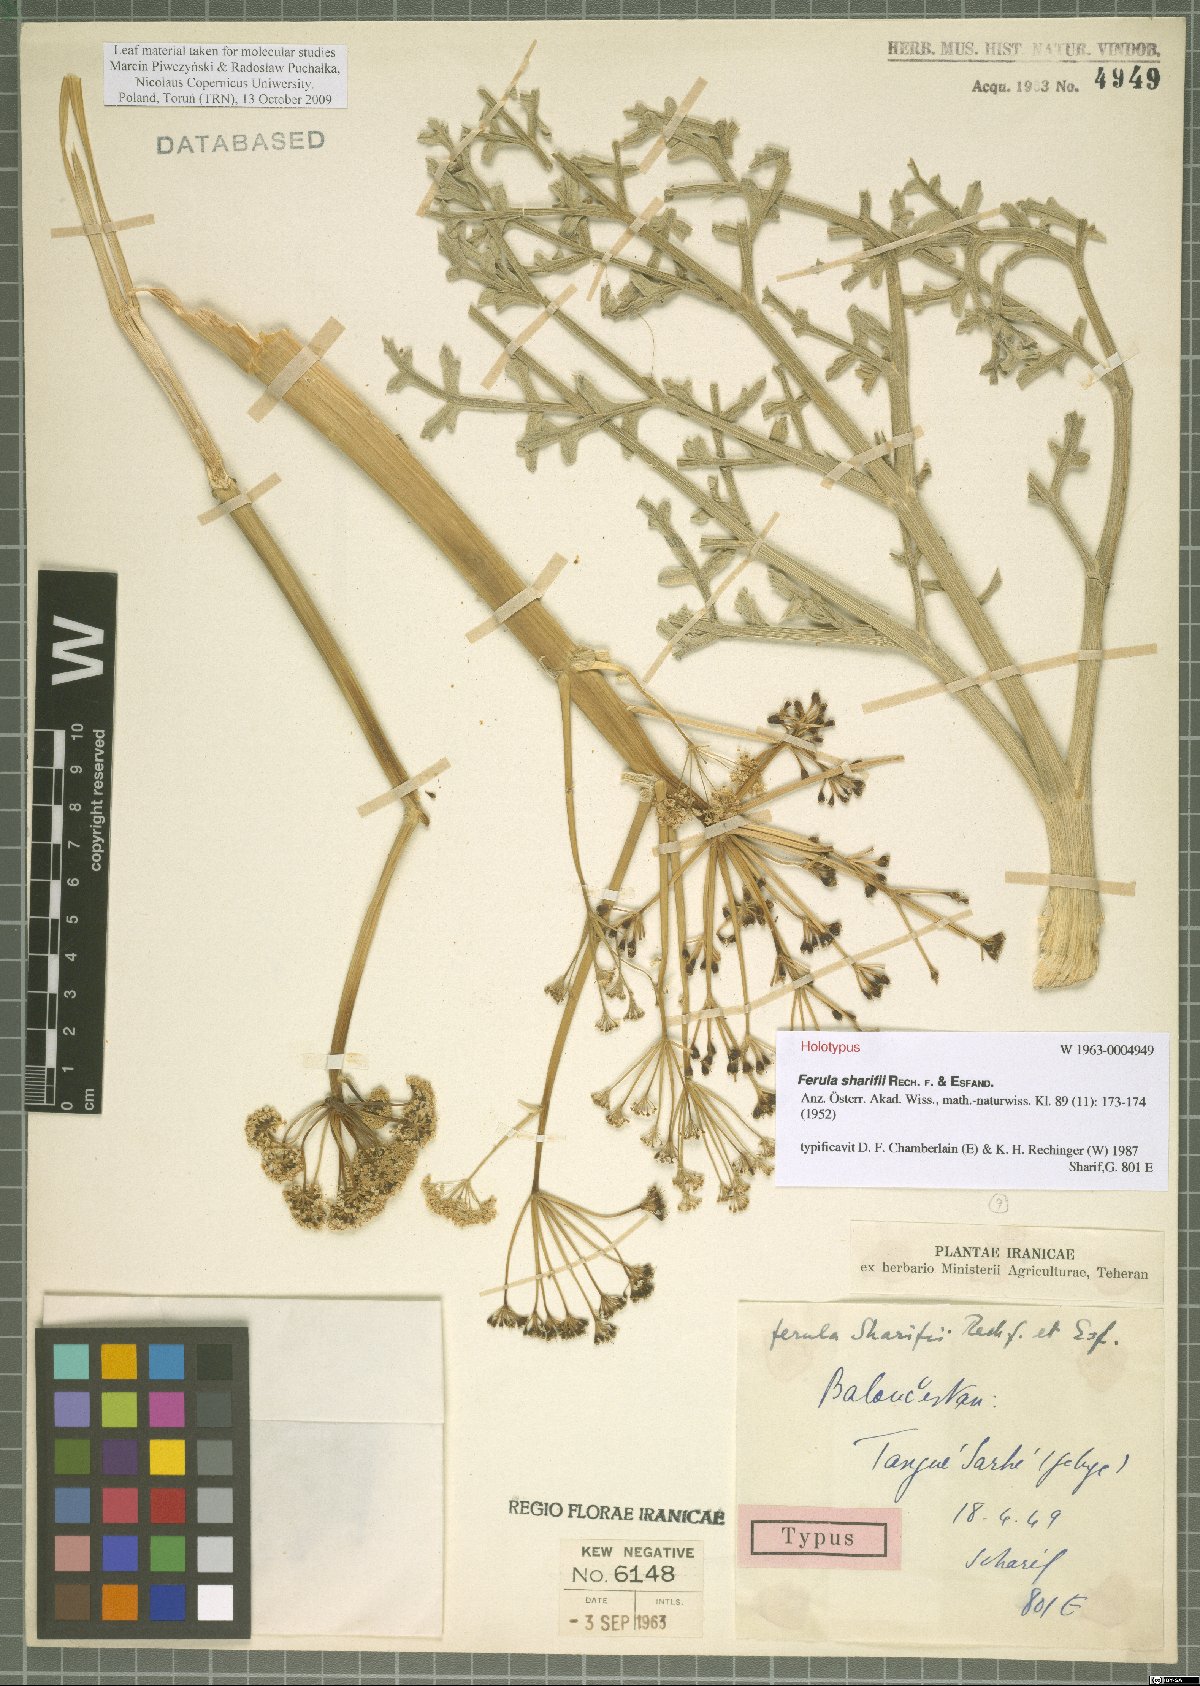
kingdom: Plantae
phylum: Tracheophyta
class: Magnoliopsida
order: Apiales
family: Apiaceae
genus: Ferula
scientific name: Ferula sharifii
